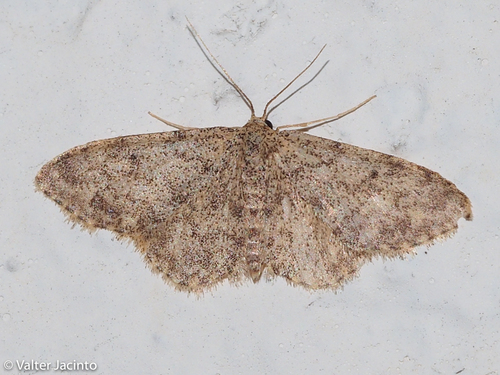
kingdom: Animalia
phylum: Arthropoda
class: Insecta
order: Lepidoptera
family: Geometridae
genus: Idaea
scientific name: Idaea cervantaria
